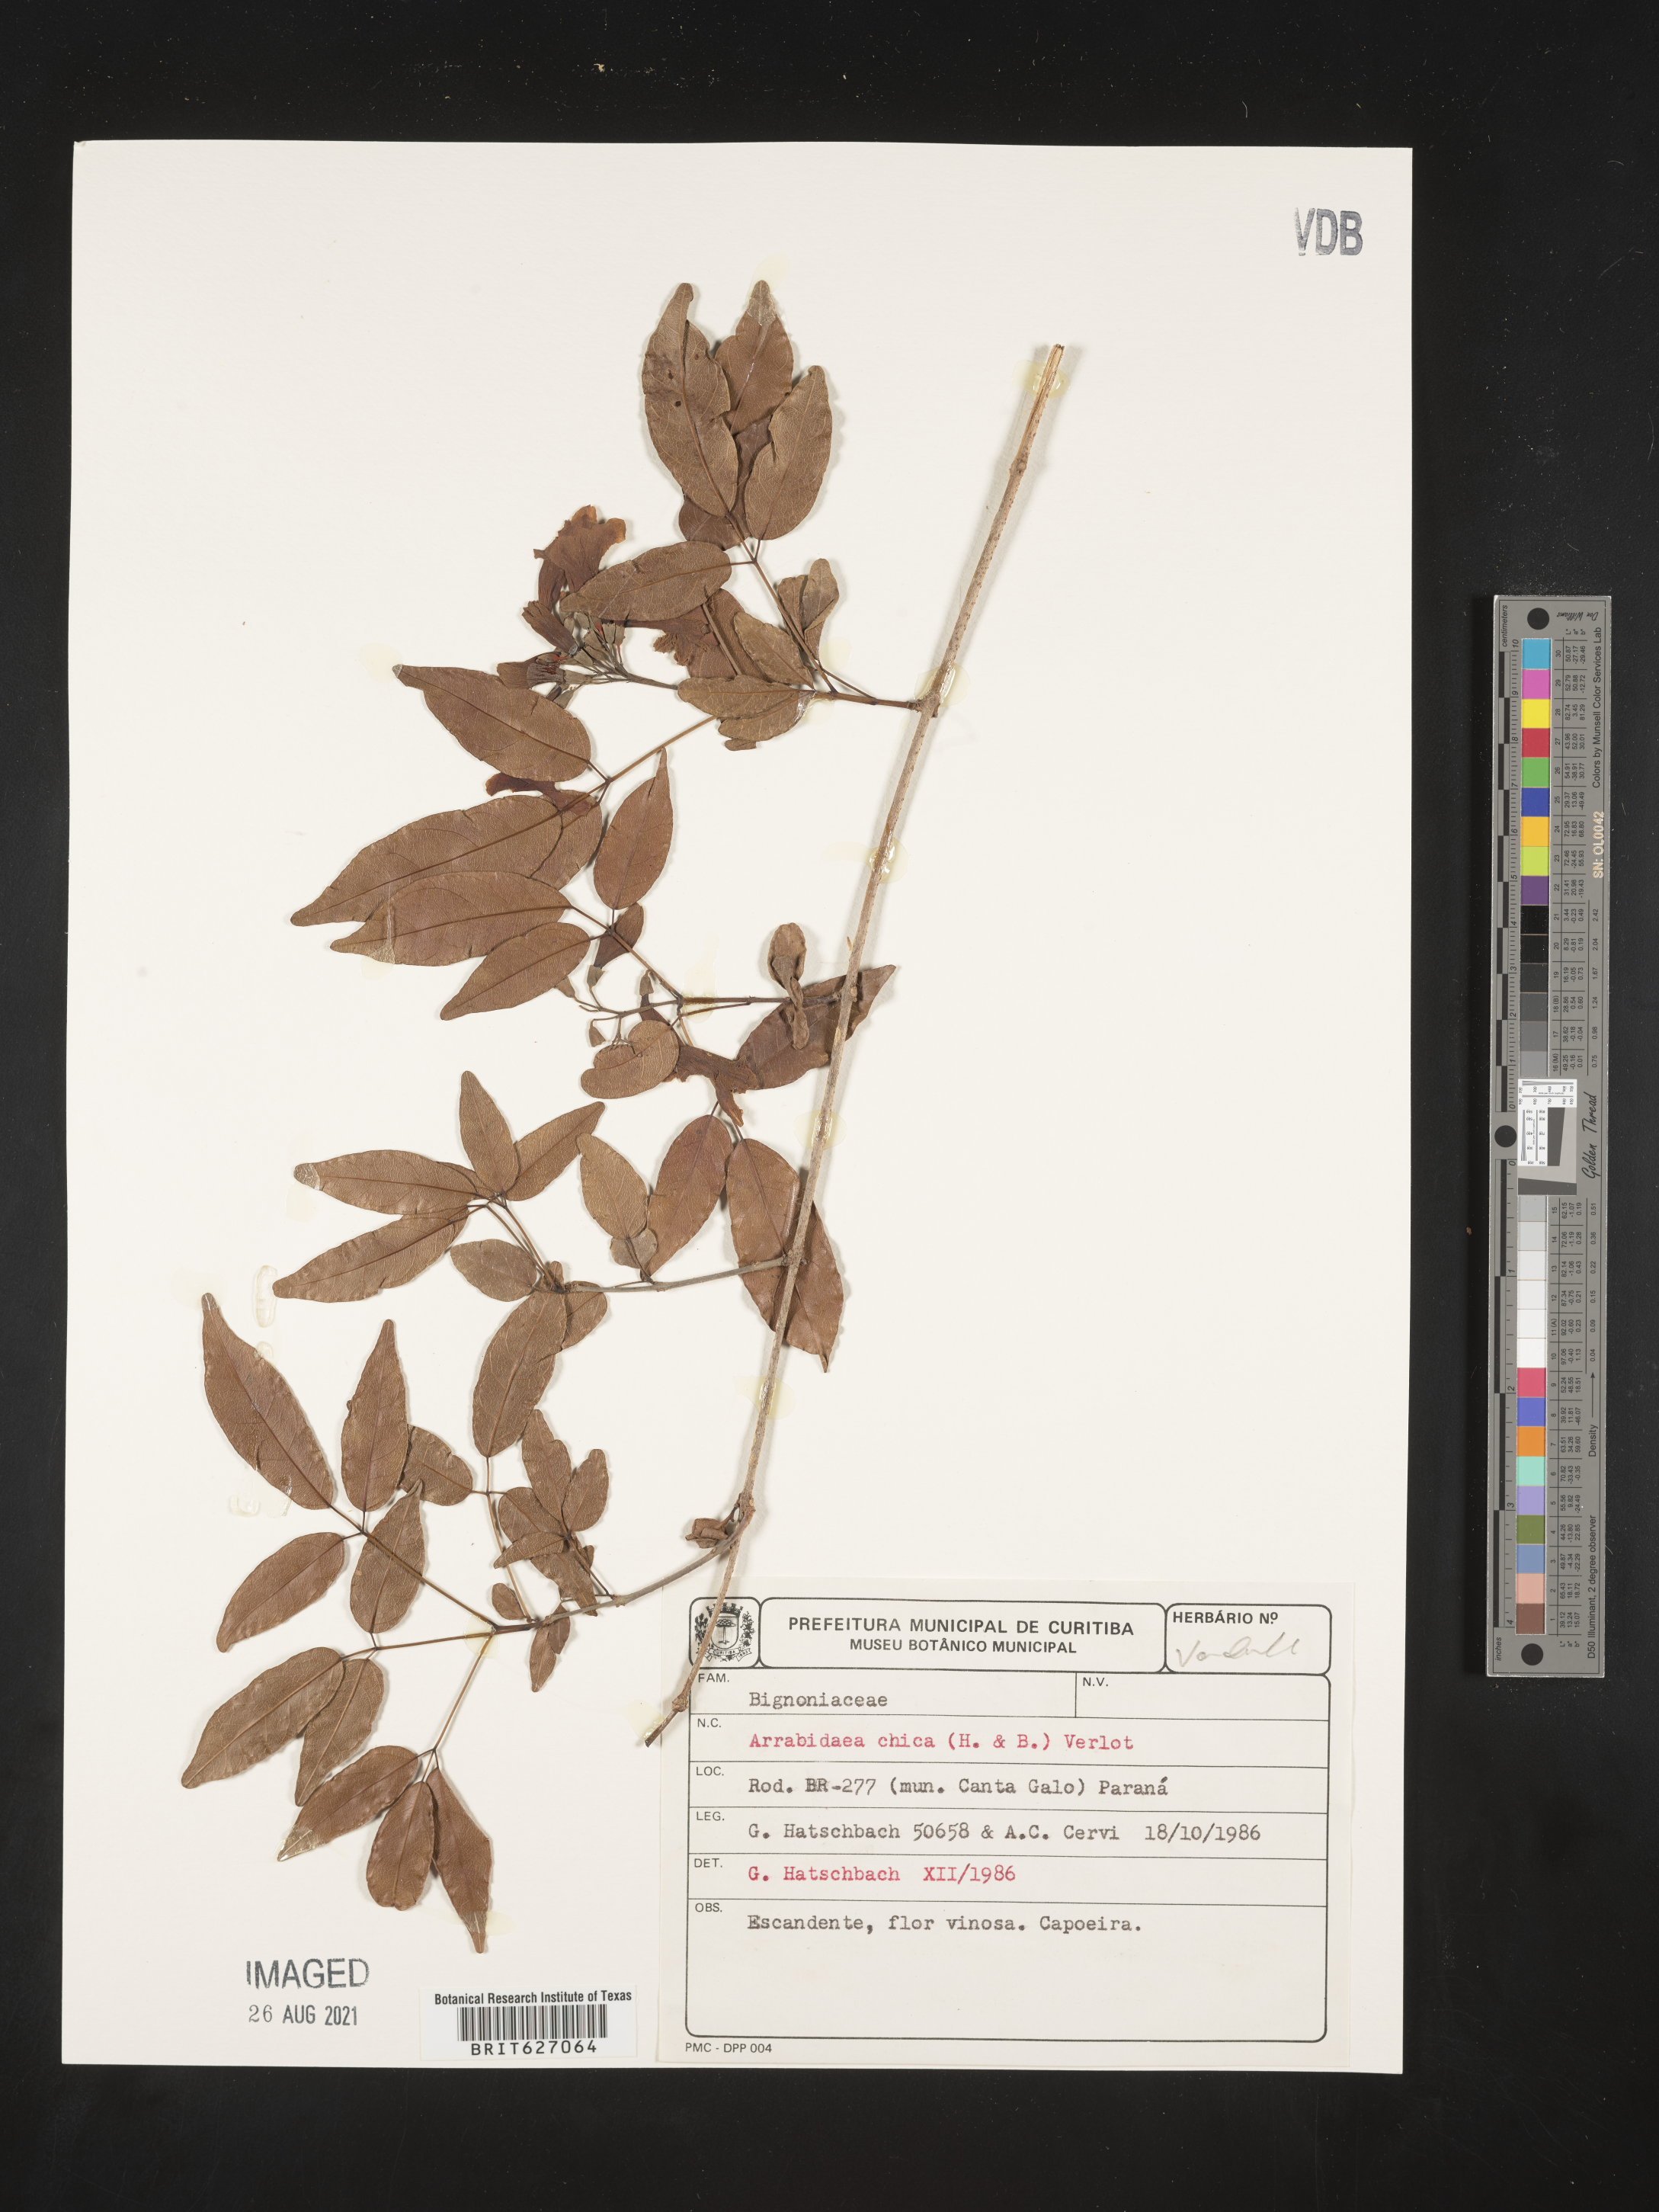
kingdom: Plantae
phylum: Tracheophyta
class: Magnoliopsida
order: Lamiales
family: Bignoniaceae
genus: Fridericia
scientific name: Fridericia chica
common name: Cricketvine
